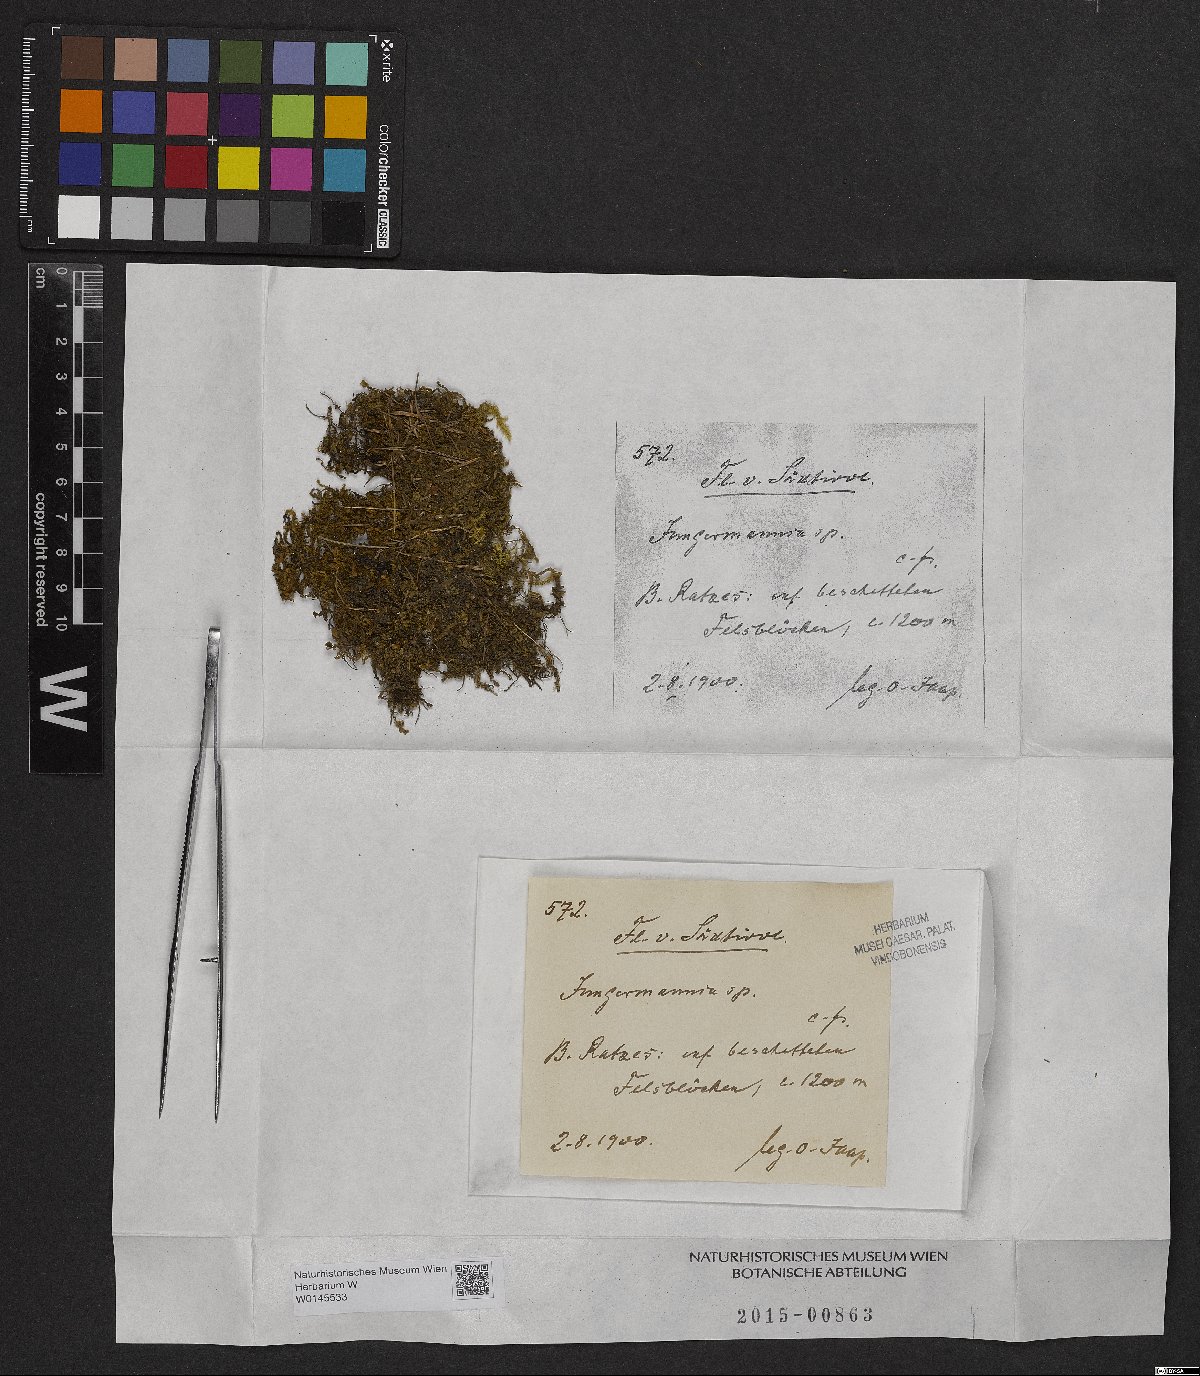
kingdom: Plantae
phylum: Marchantiophyta
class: Jungermanniopsida
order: Jungermanniales
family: Jungermanniaceae
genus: Jungermannia
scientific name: Jungermannia
